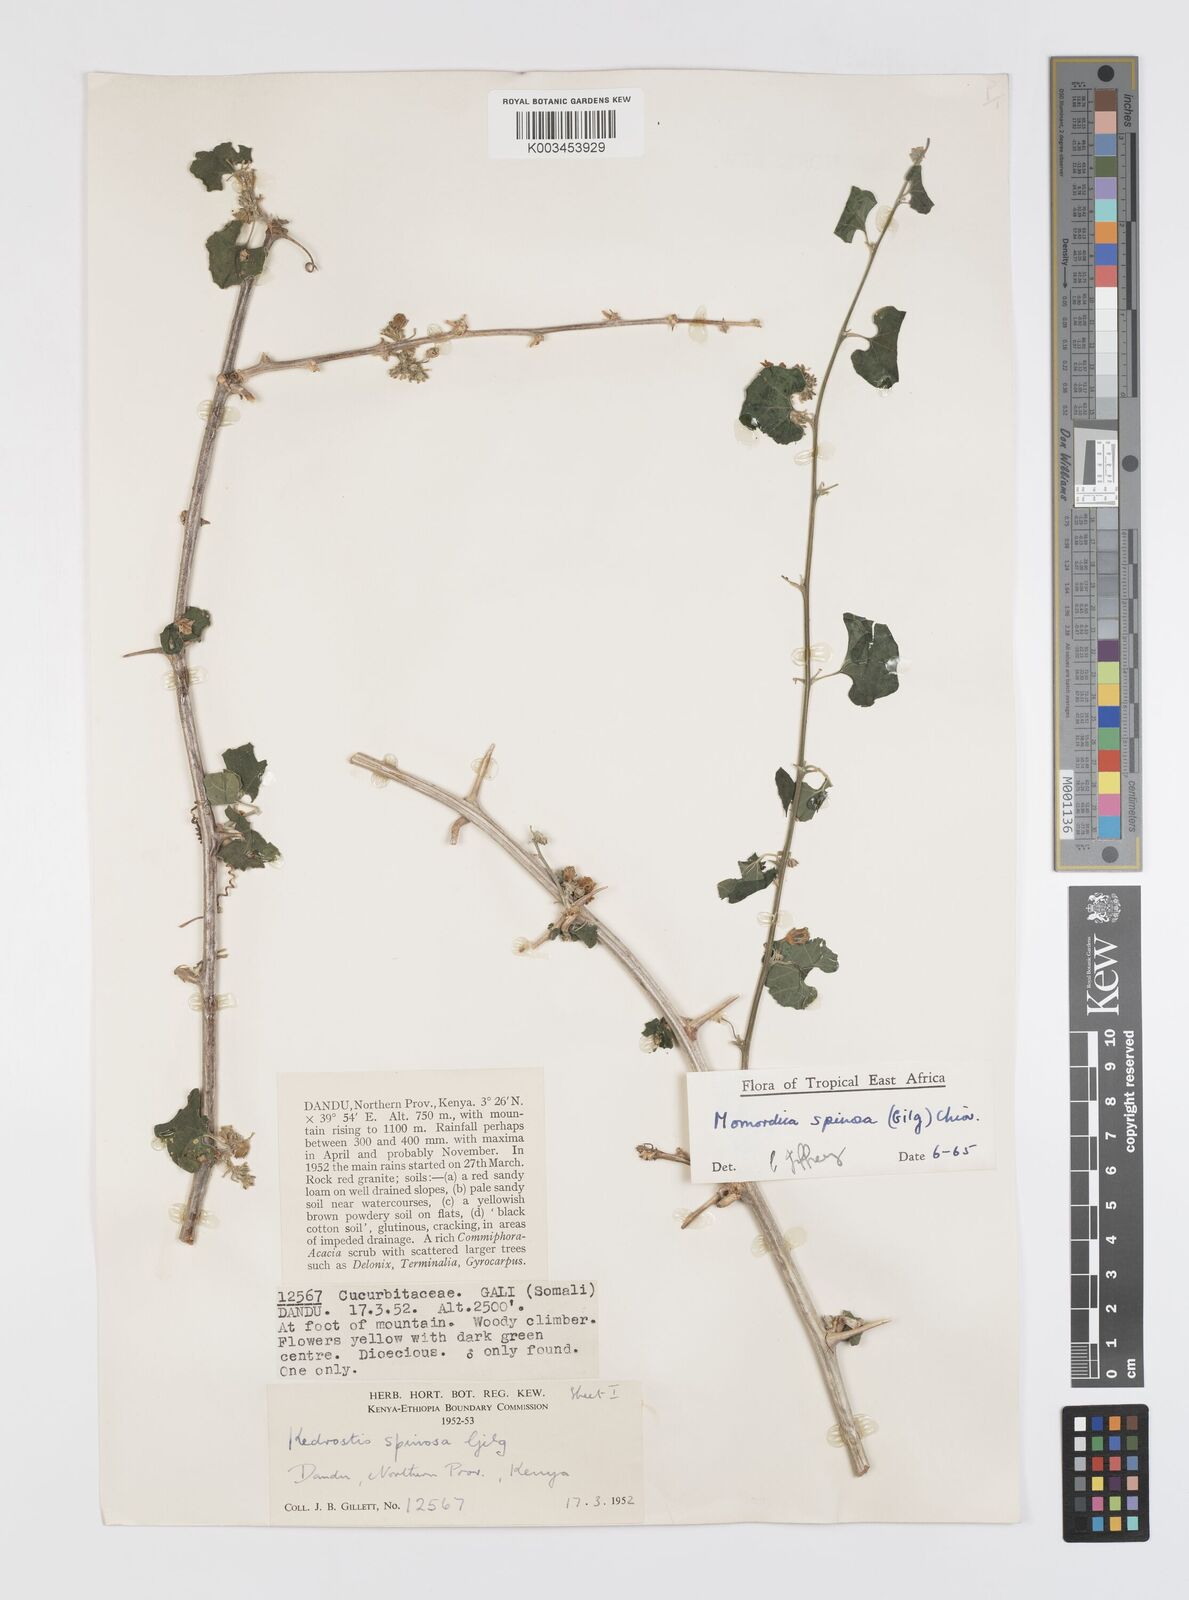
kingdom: Plantae
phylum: Tracheophyta
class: Magnoliopsida
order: Cucurbitales
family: Cucurbitaceae
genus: Momordica
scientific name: Momordica spinosa
